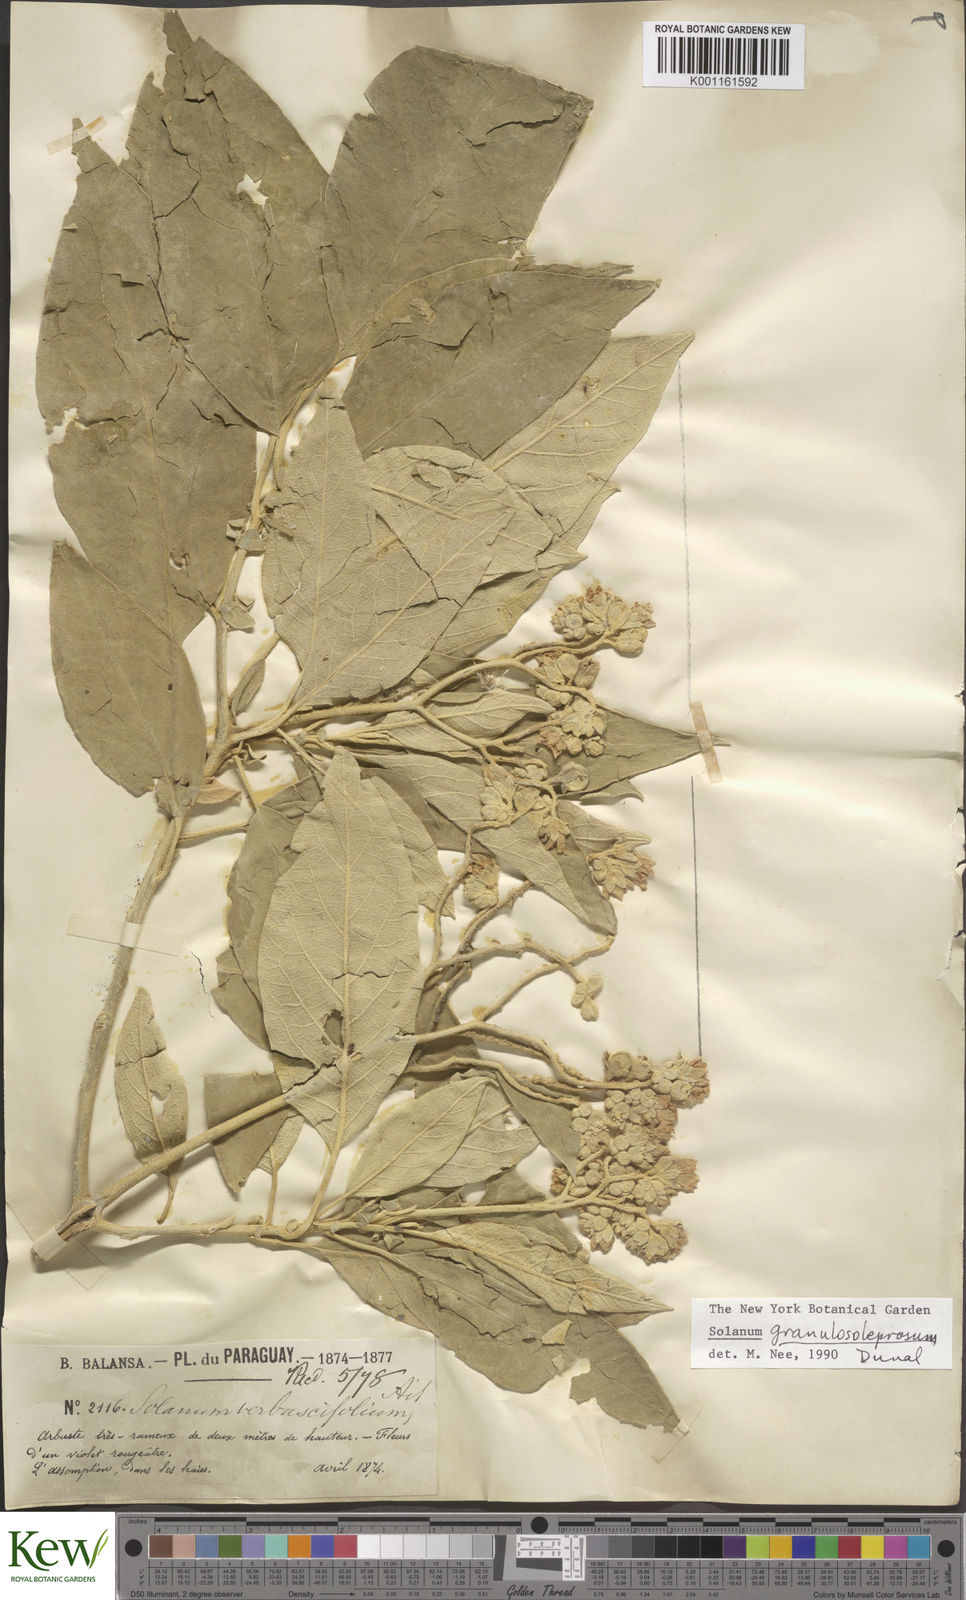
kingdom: Plantae
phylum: Tracheophyta
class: Magnoliopsida
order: Solanales
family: Solanaceae
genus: Solanum
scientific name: Solanum granulosoleprosum
